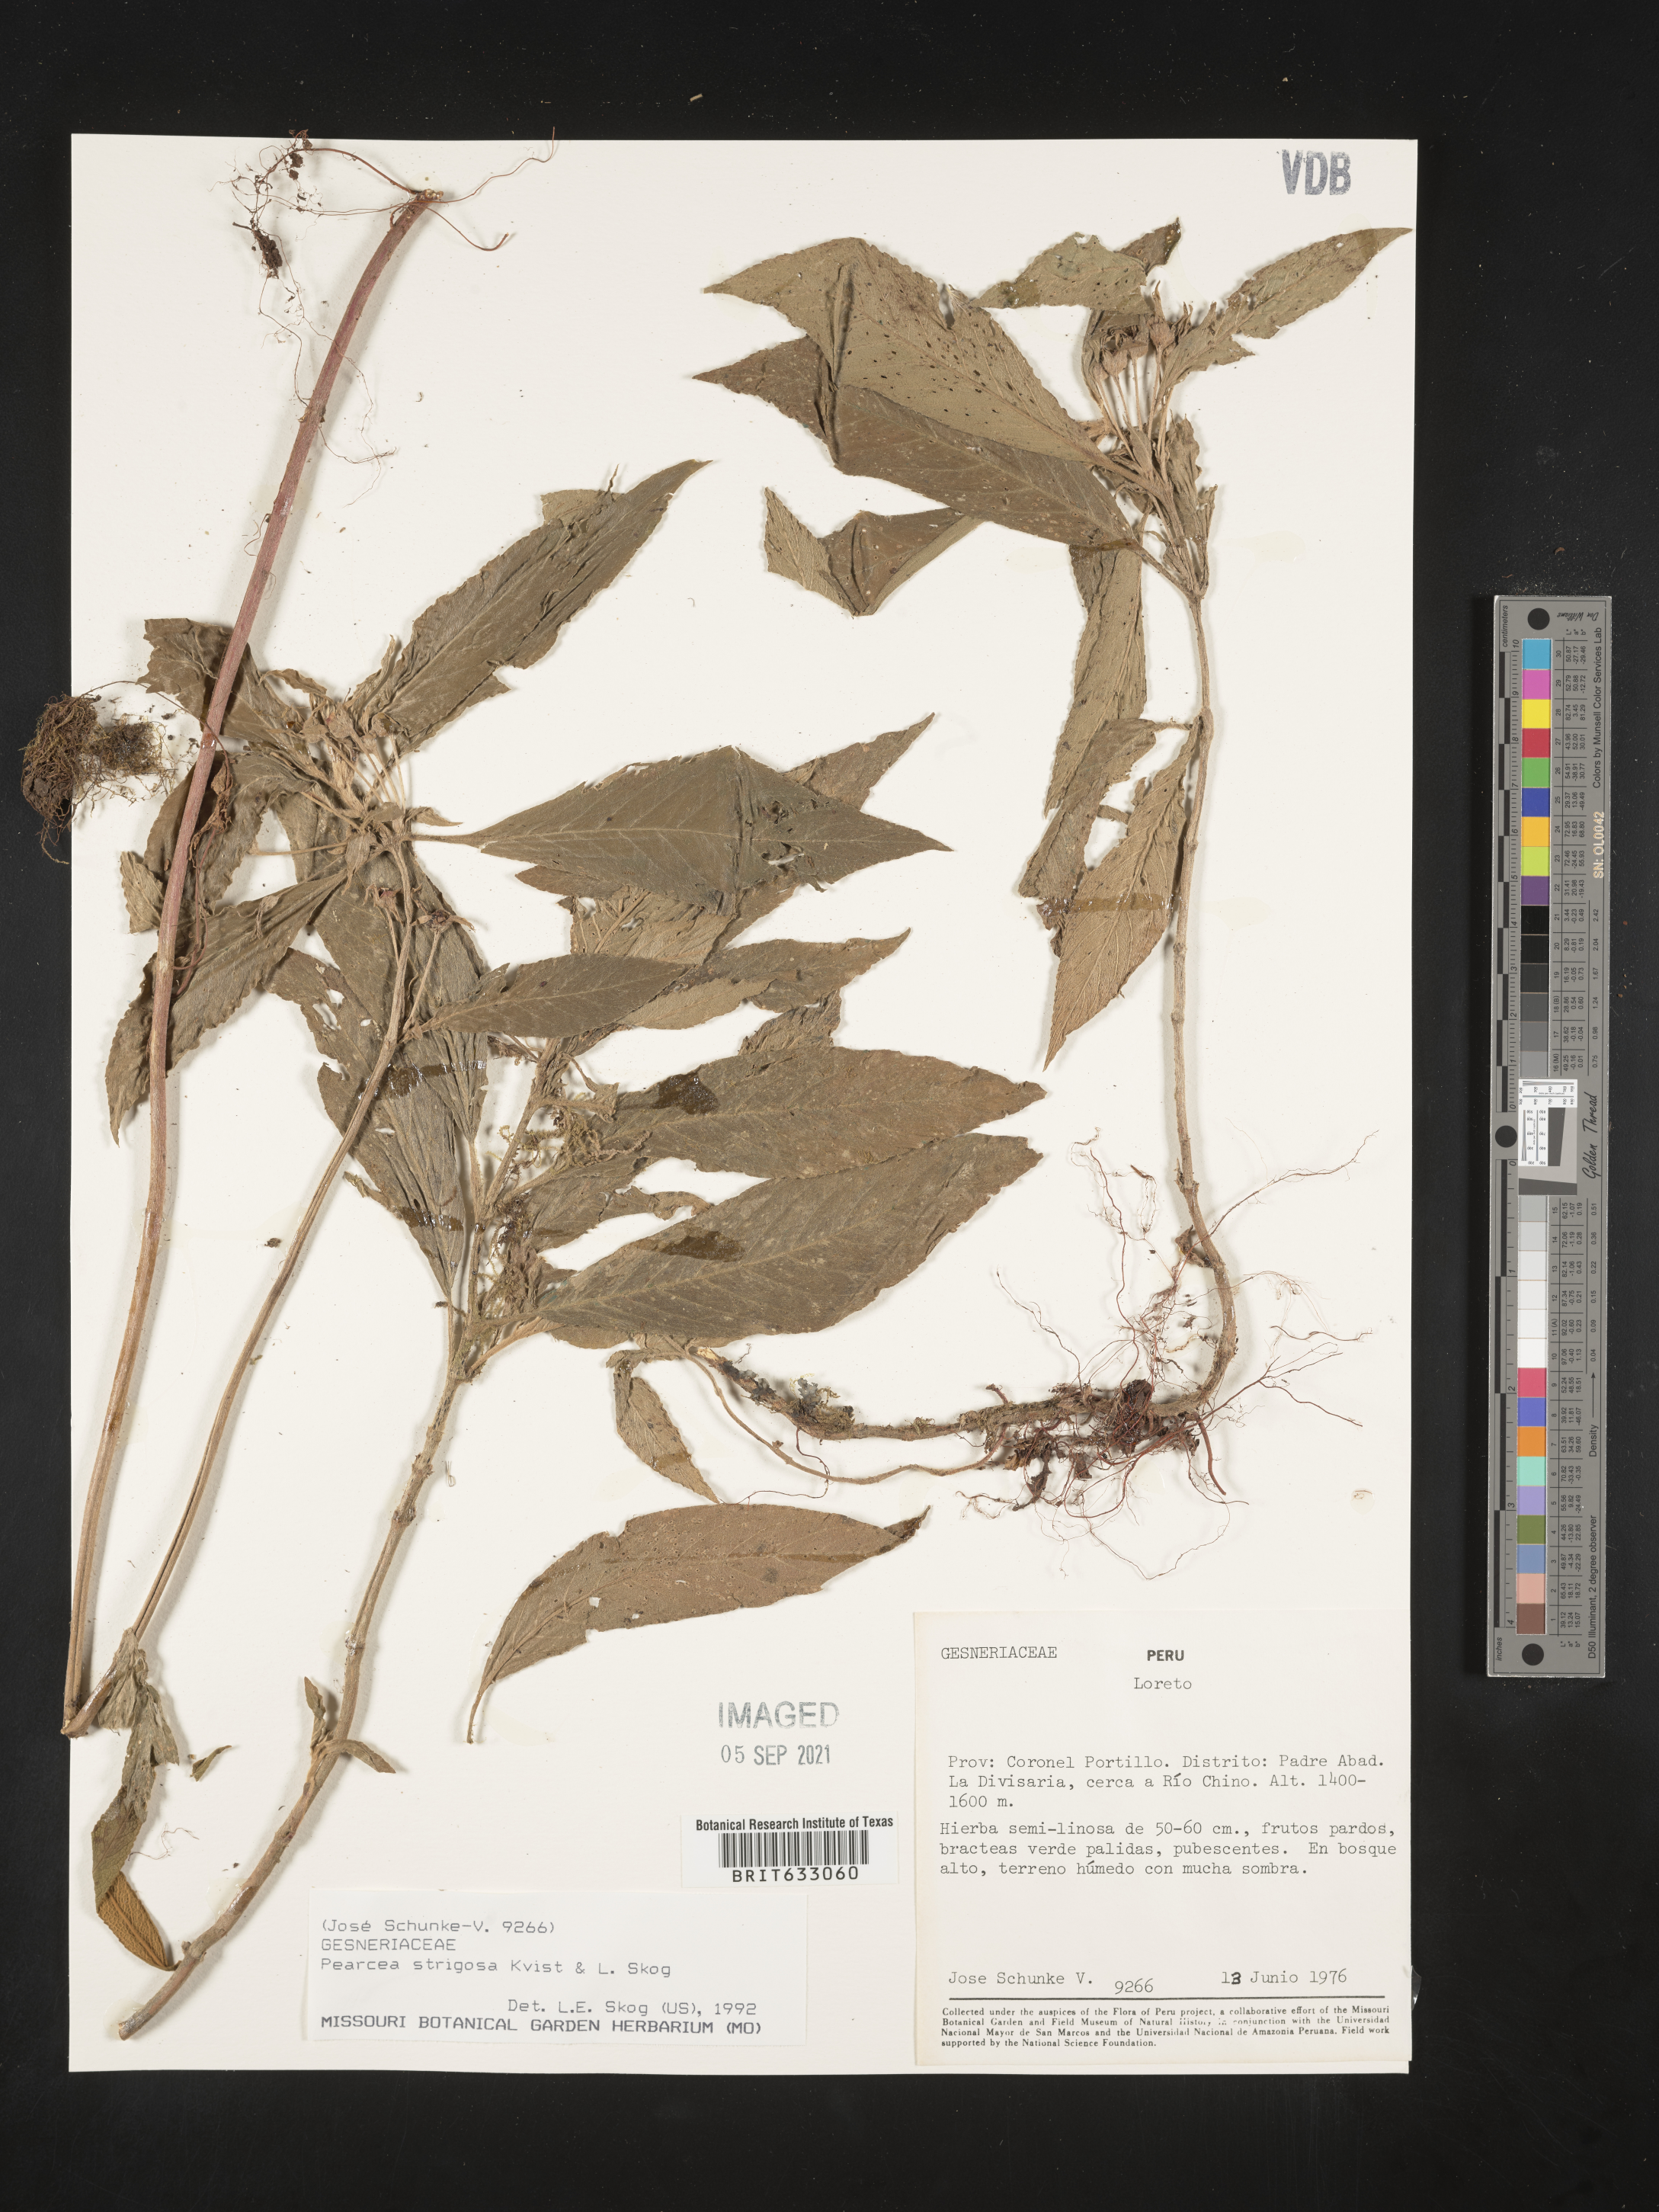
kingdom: Plantae
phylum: Tracheophyta
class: Magnoliopsida
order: Lamiales
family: Gesneriaceae
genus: Pearcea
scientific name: Pearcea
